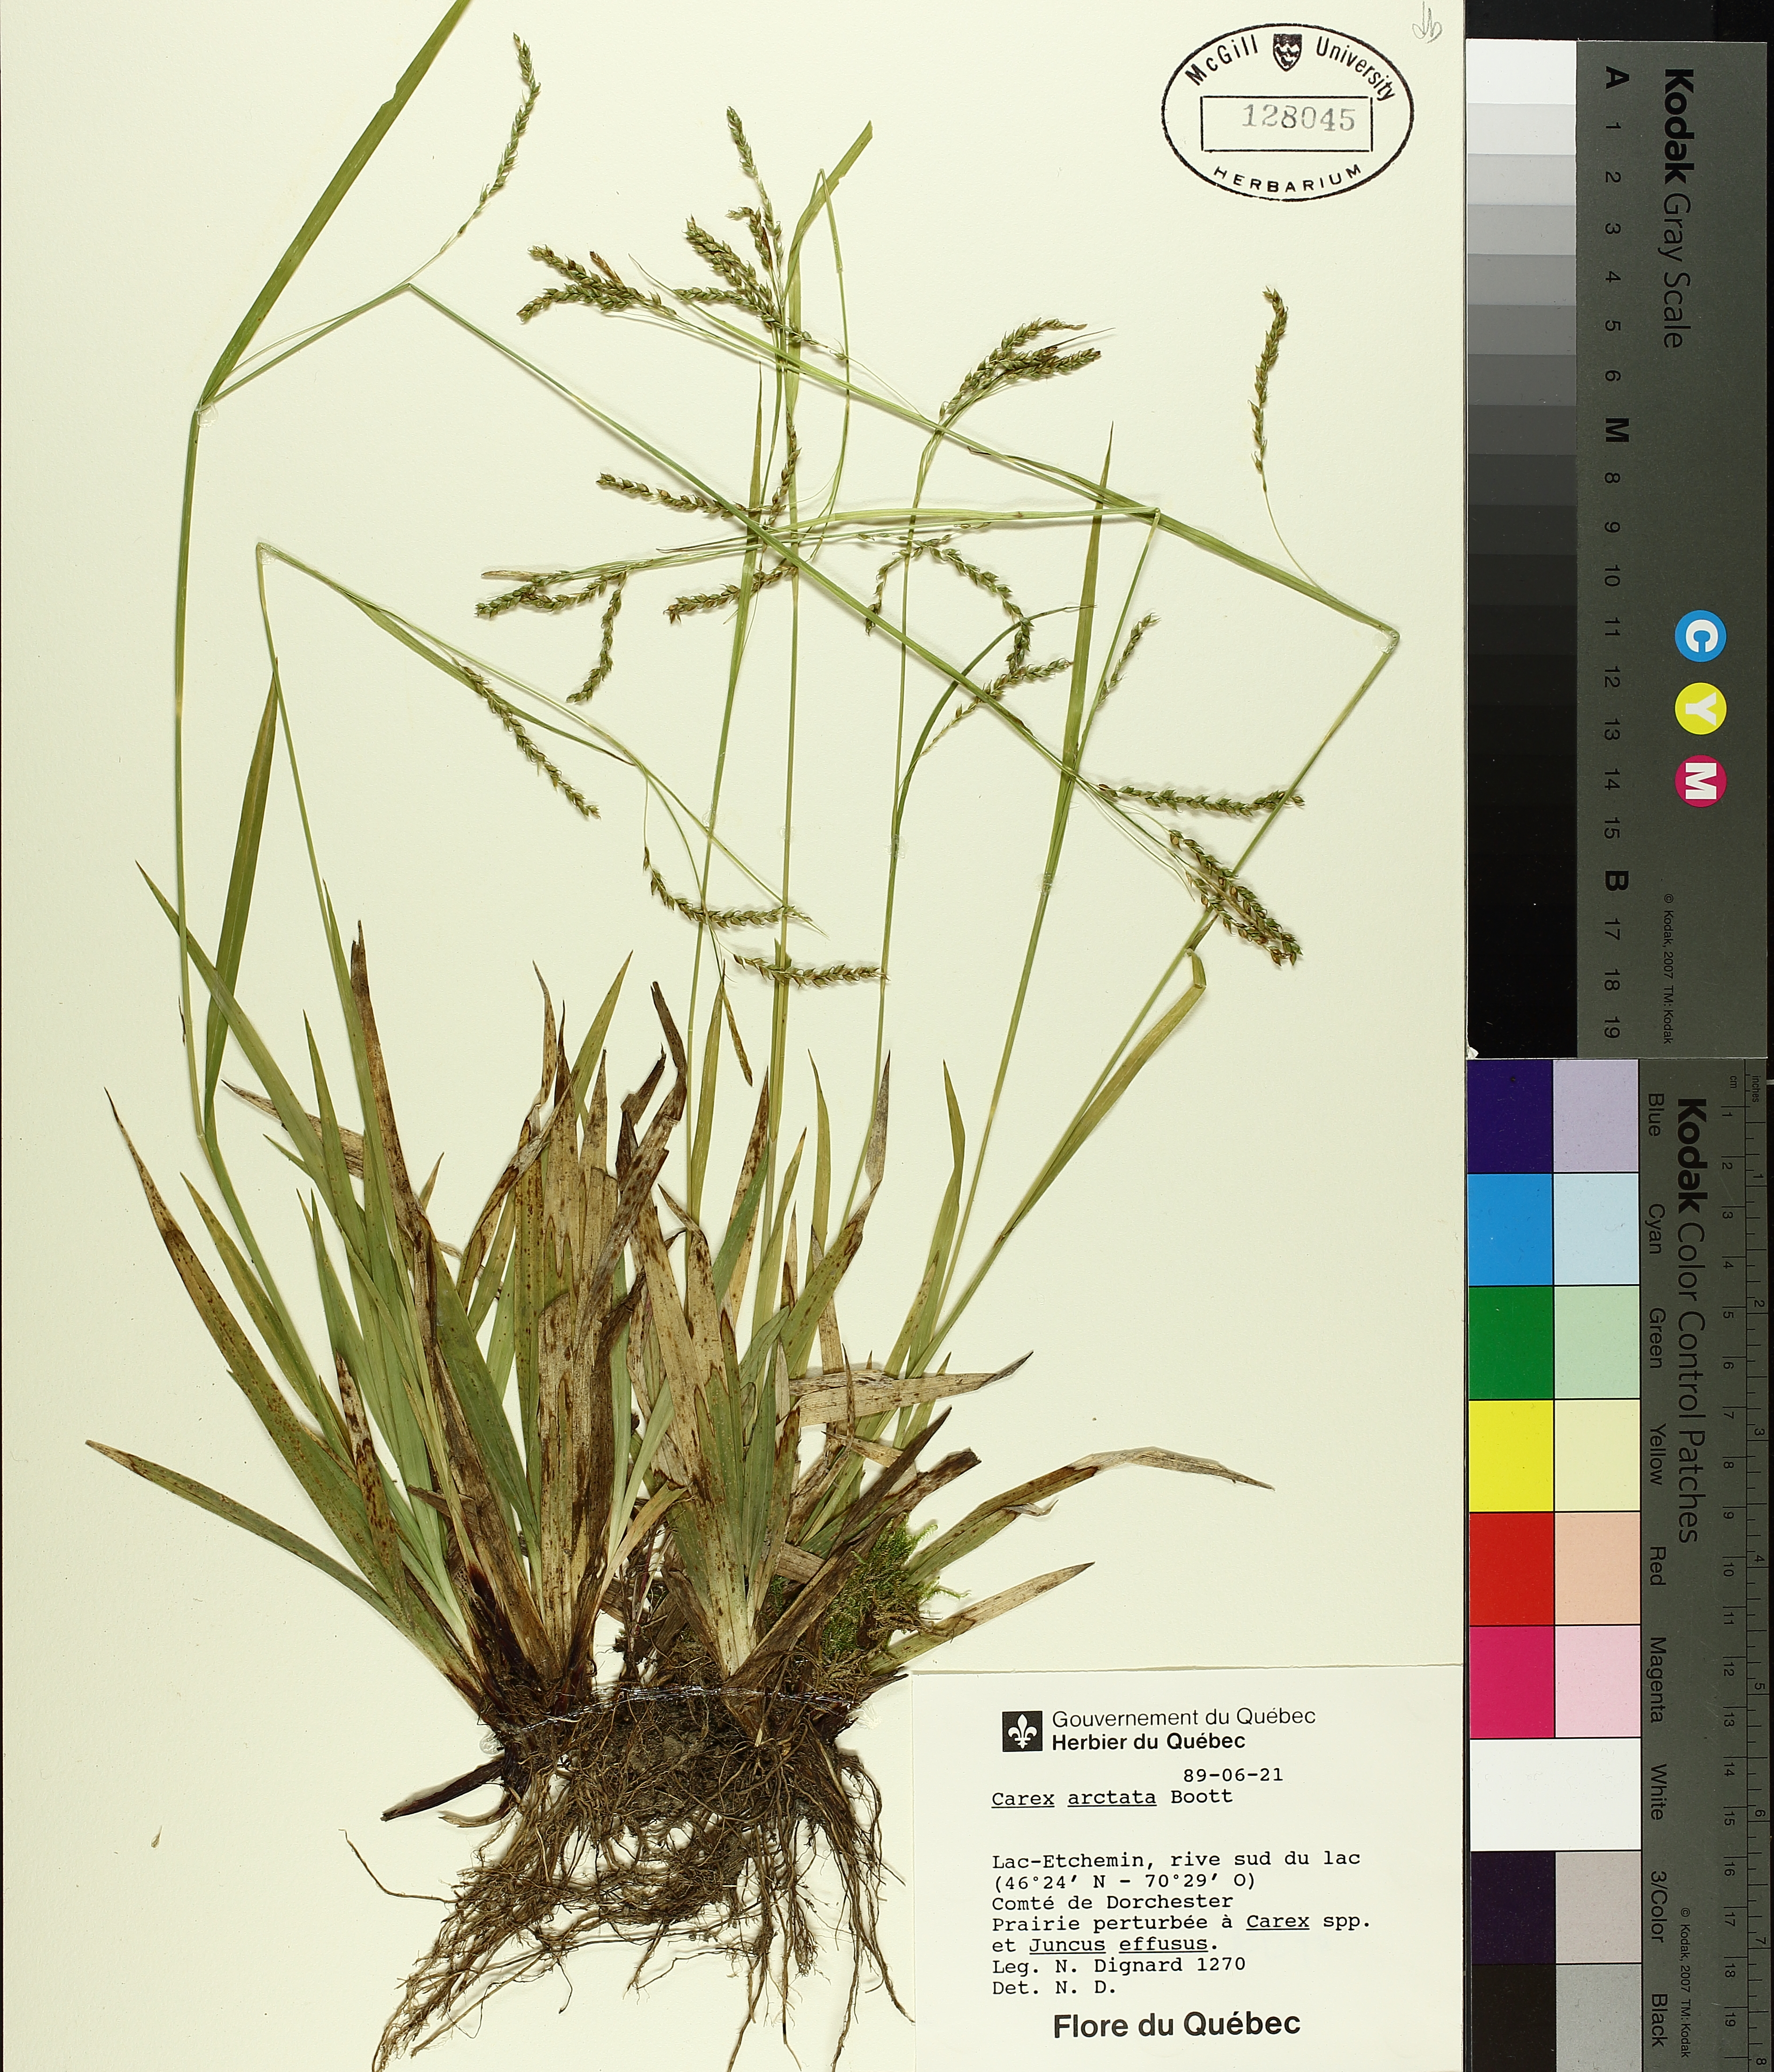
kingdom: Plantae
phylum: Tracheophyta
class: Liliopsida
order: Poales
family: Cyperaceae
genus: Carex
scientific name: Carex arctata
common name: Black sedge
